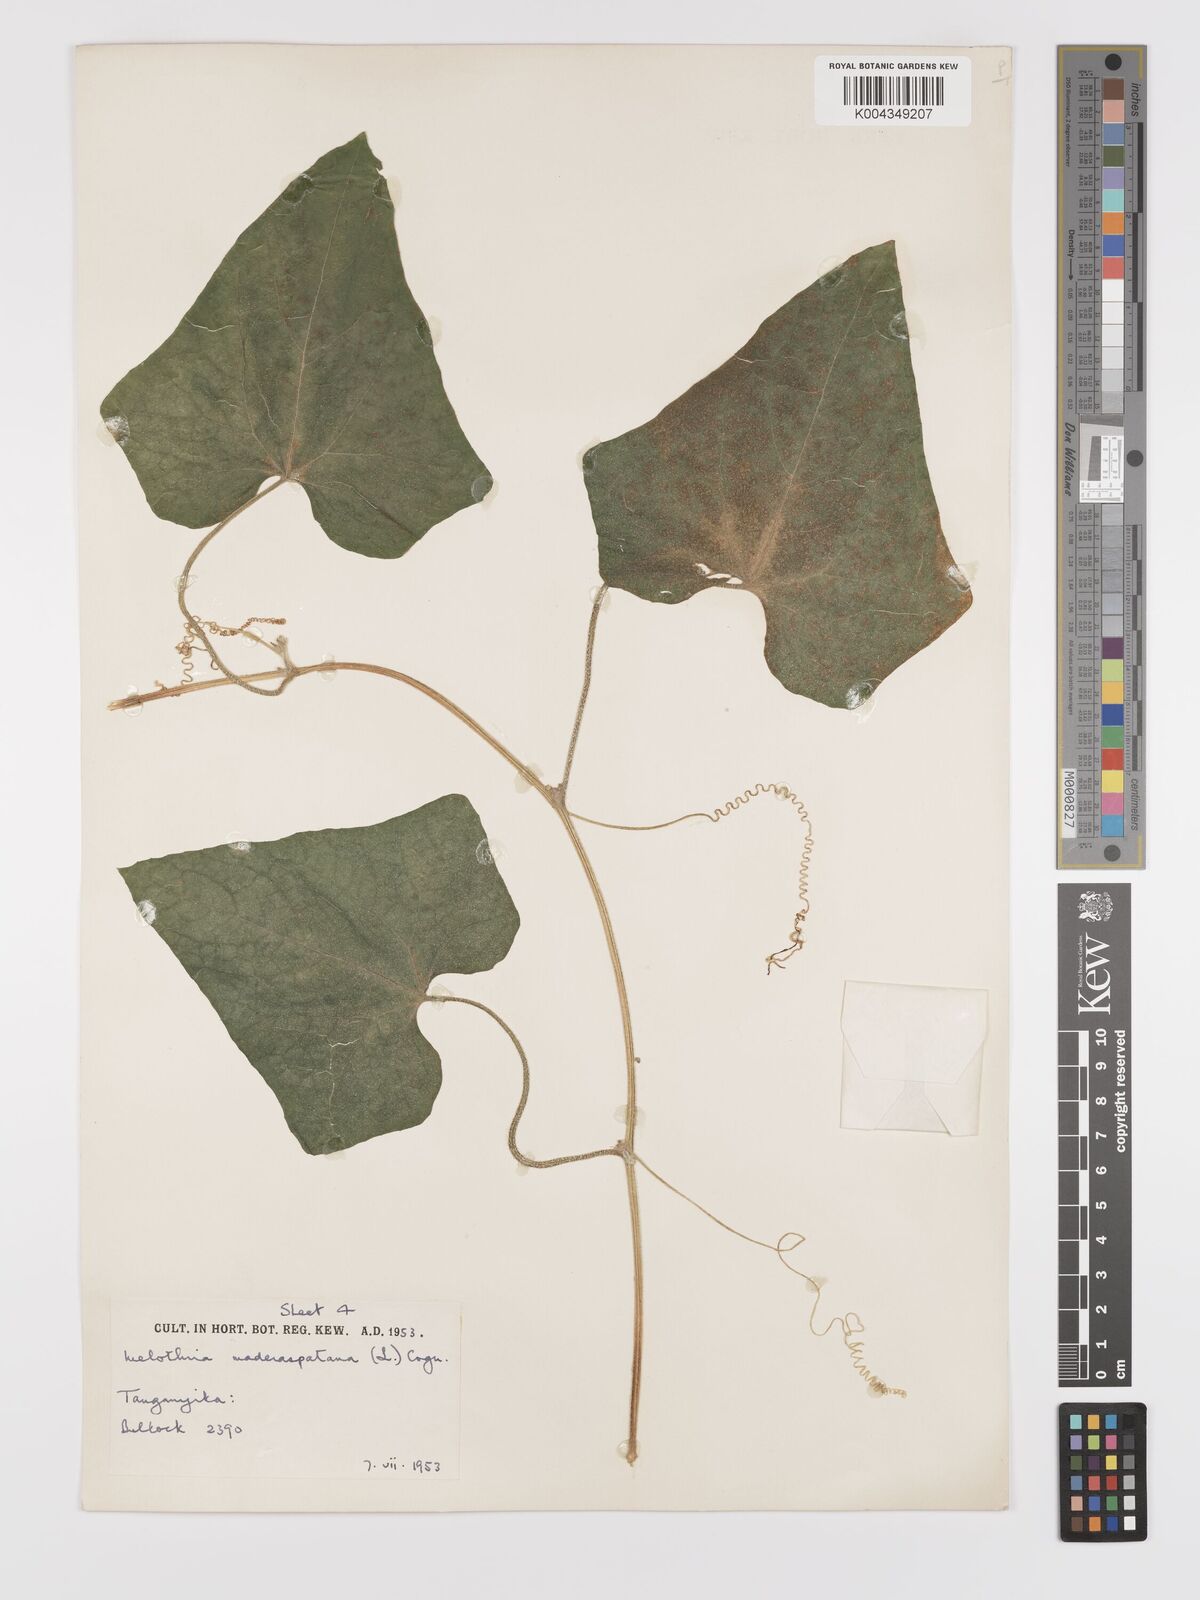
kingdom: Plantae
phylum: Tracheophyta
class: Magnoliopsida
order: Cucurbitales
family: Cucurbitaceae
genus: Cucumis
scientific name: Cucumis maderaspatanus
